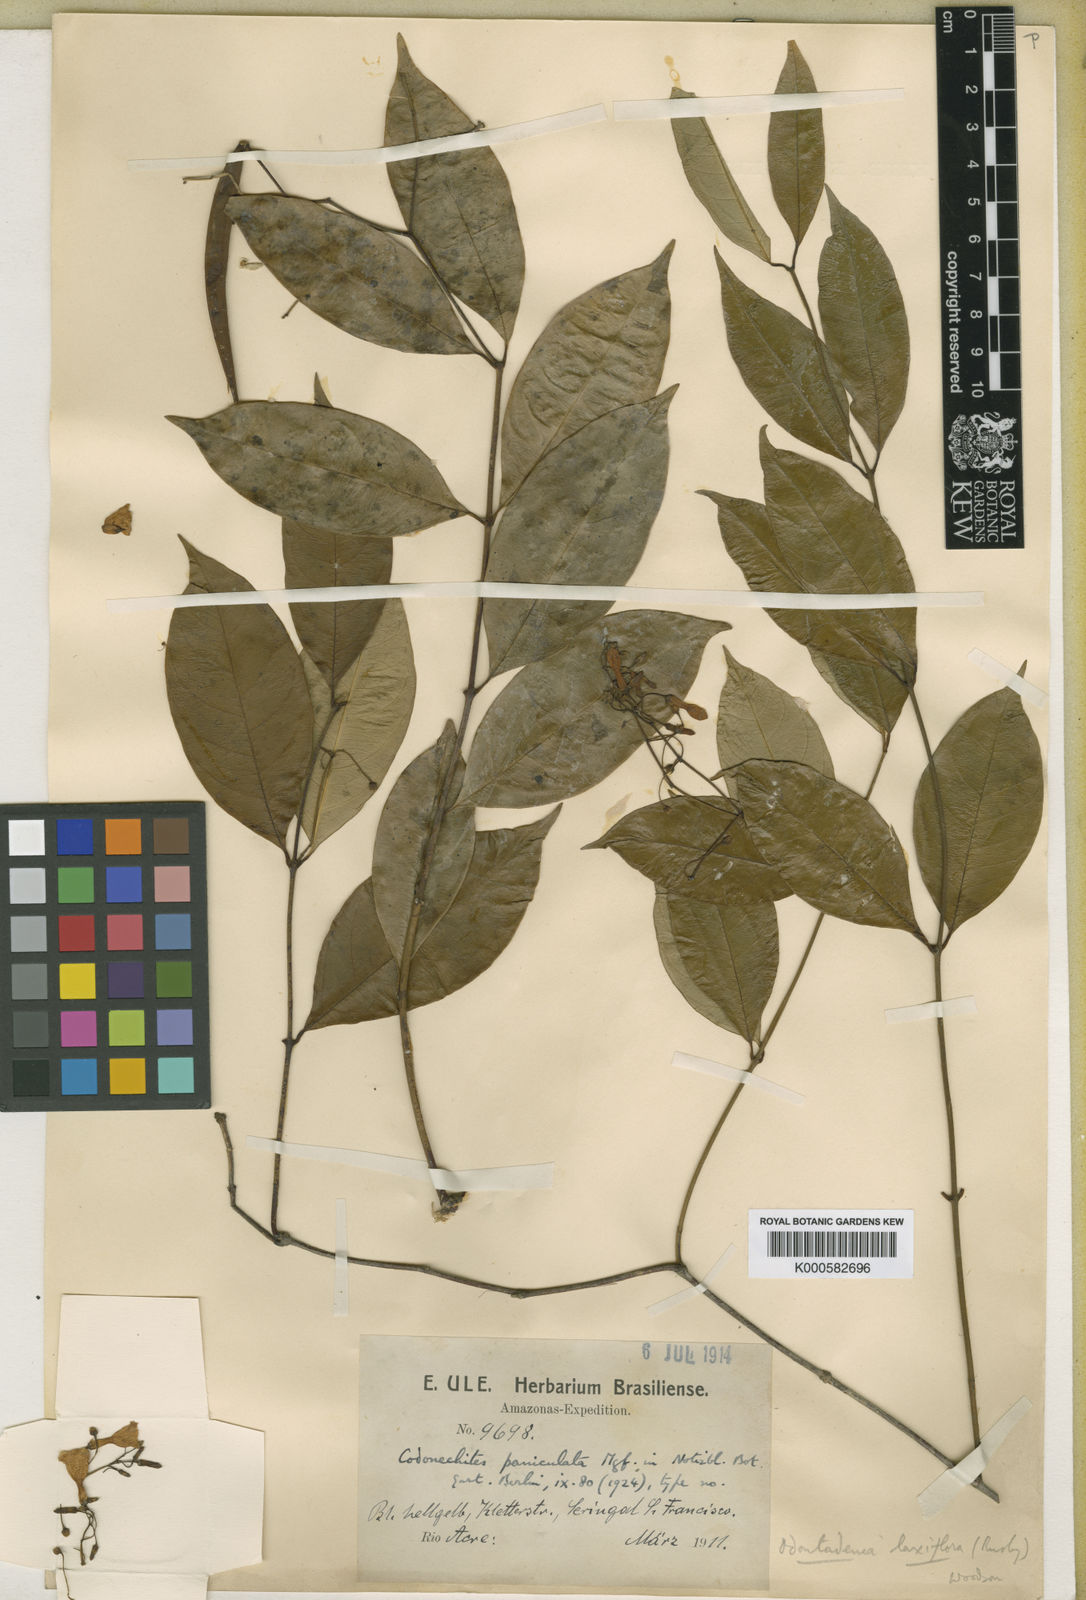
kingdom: Plantae
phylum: Tracheophyta
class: Magnoliopsida
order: Gentianales
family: Apocynaceae
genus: Odontadenia
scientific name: Odontadenia laxiflora
